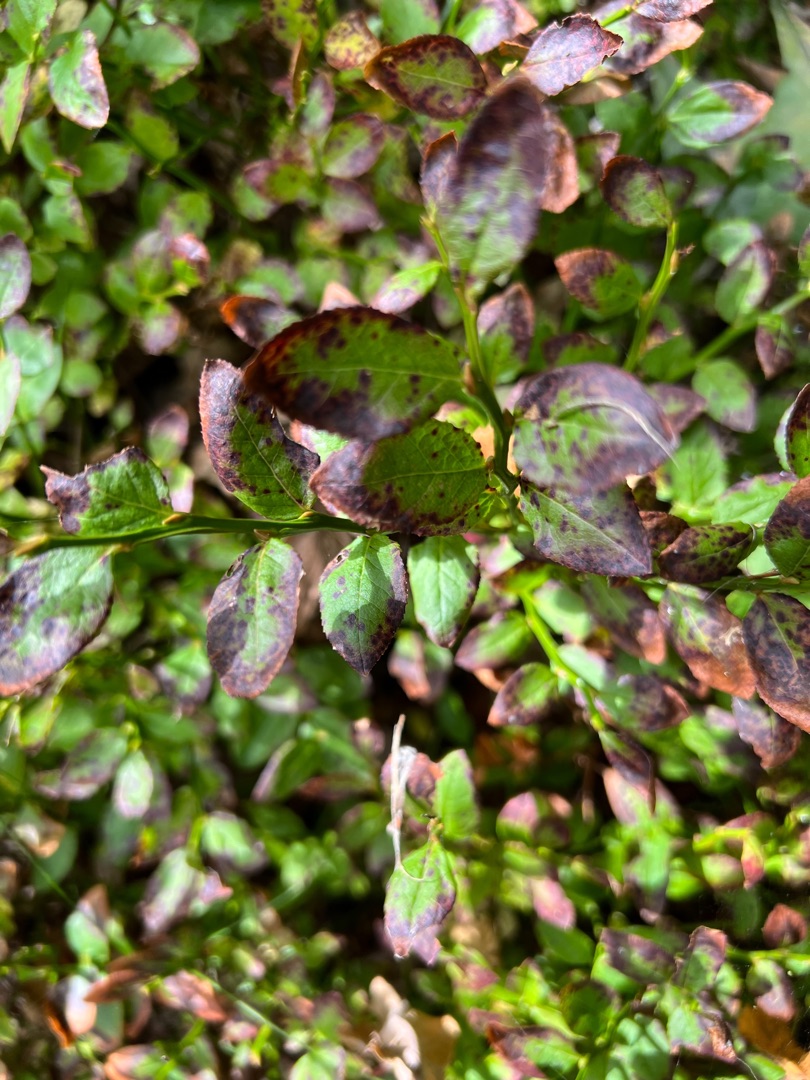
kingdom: Plantae
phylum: Tracheophyta
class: Magnoliopsida
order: Ericales
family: Ericaceae
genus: Vaccinium
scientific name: Vaccinium myrtillus
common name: Blåbær
